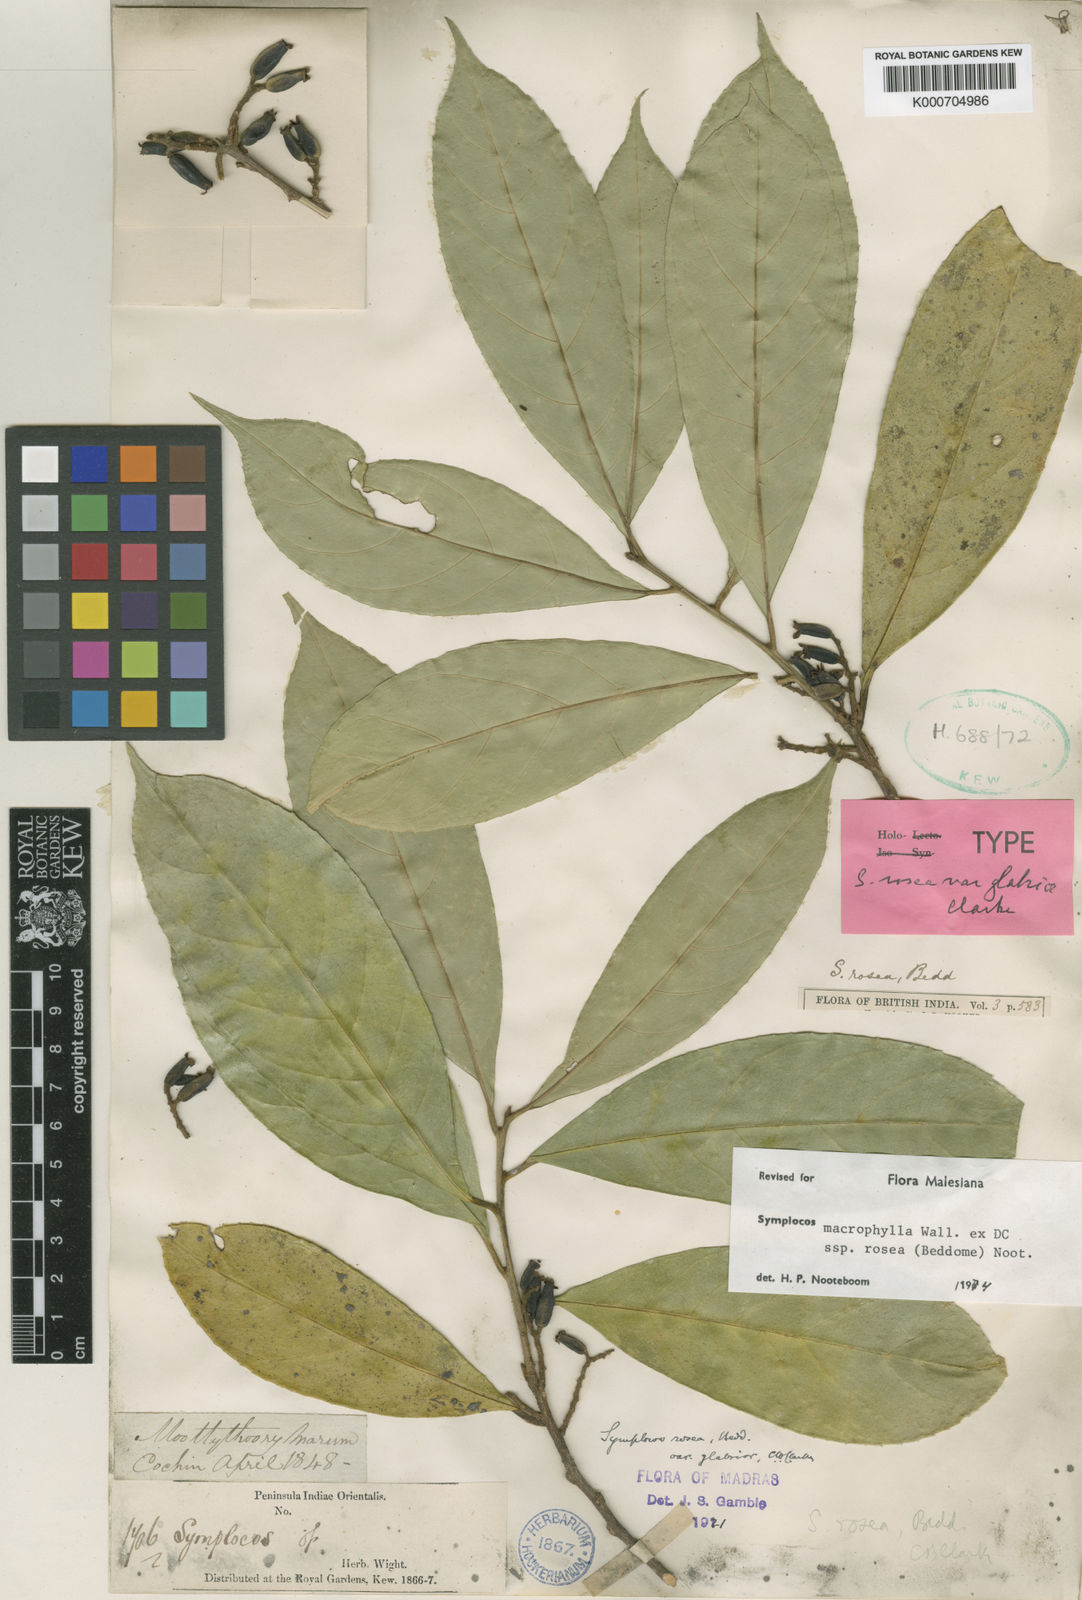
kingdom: Plantae
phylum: Tracheophyta
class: Magnoliopsida
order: Ericales
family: Symplocaceae
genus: Symplocos
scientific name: Symplocos macrophylla
